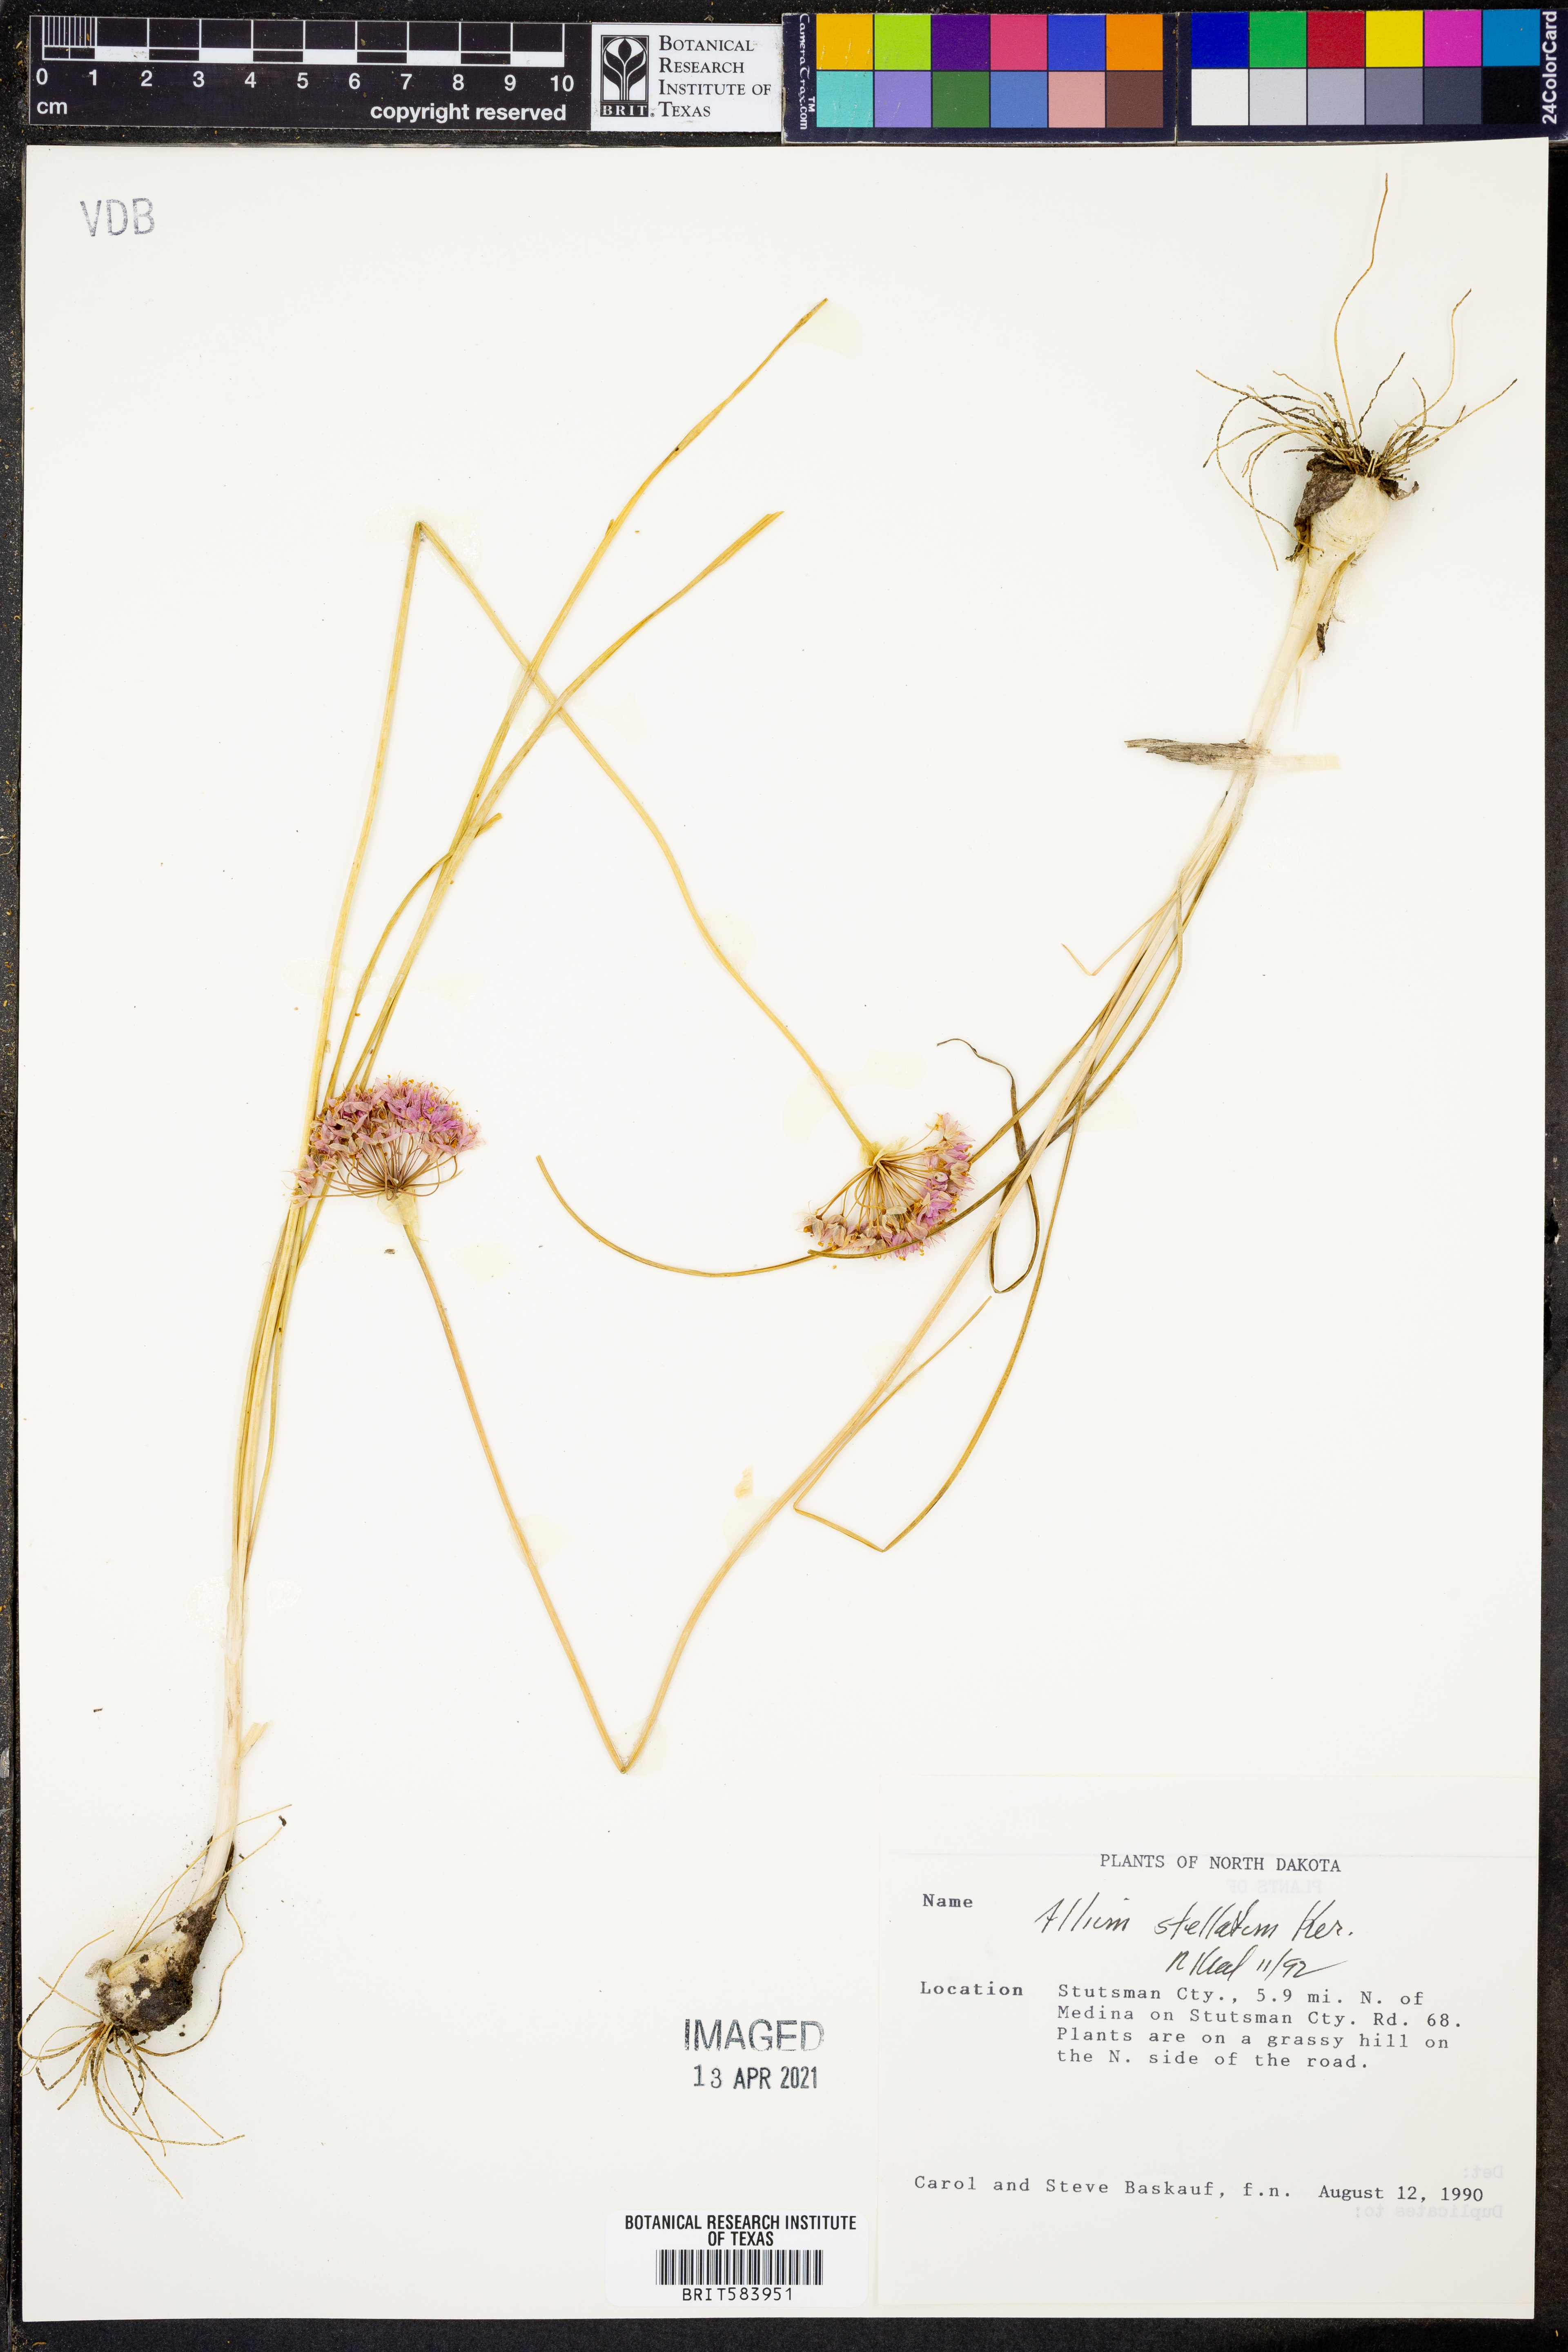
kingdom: Plantae
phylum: Tracheophyta
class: Liliopsida
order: Asparagales
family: Amaryllidaceae
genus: Allium
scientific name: Allium stellatum
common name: Autumn onion
